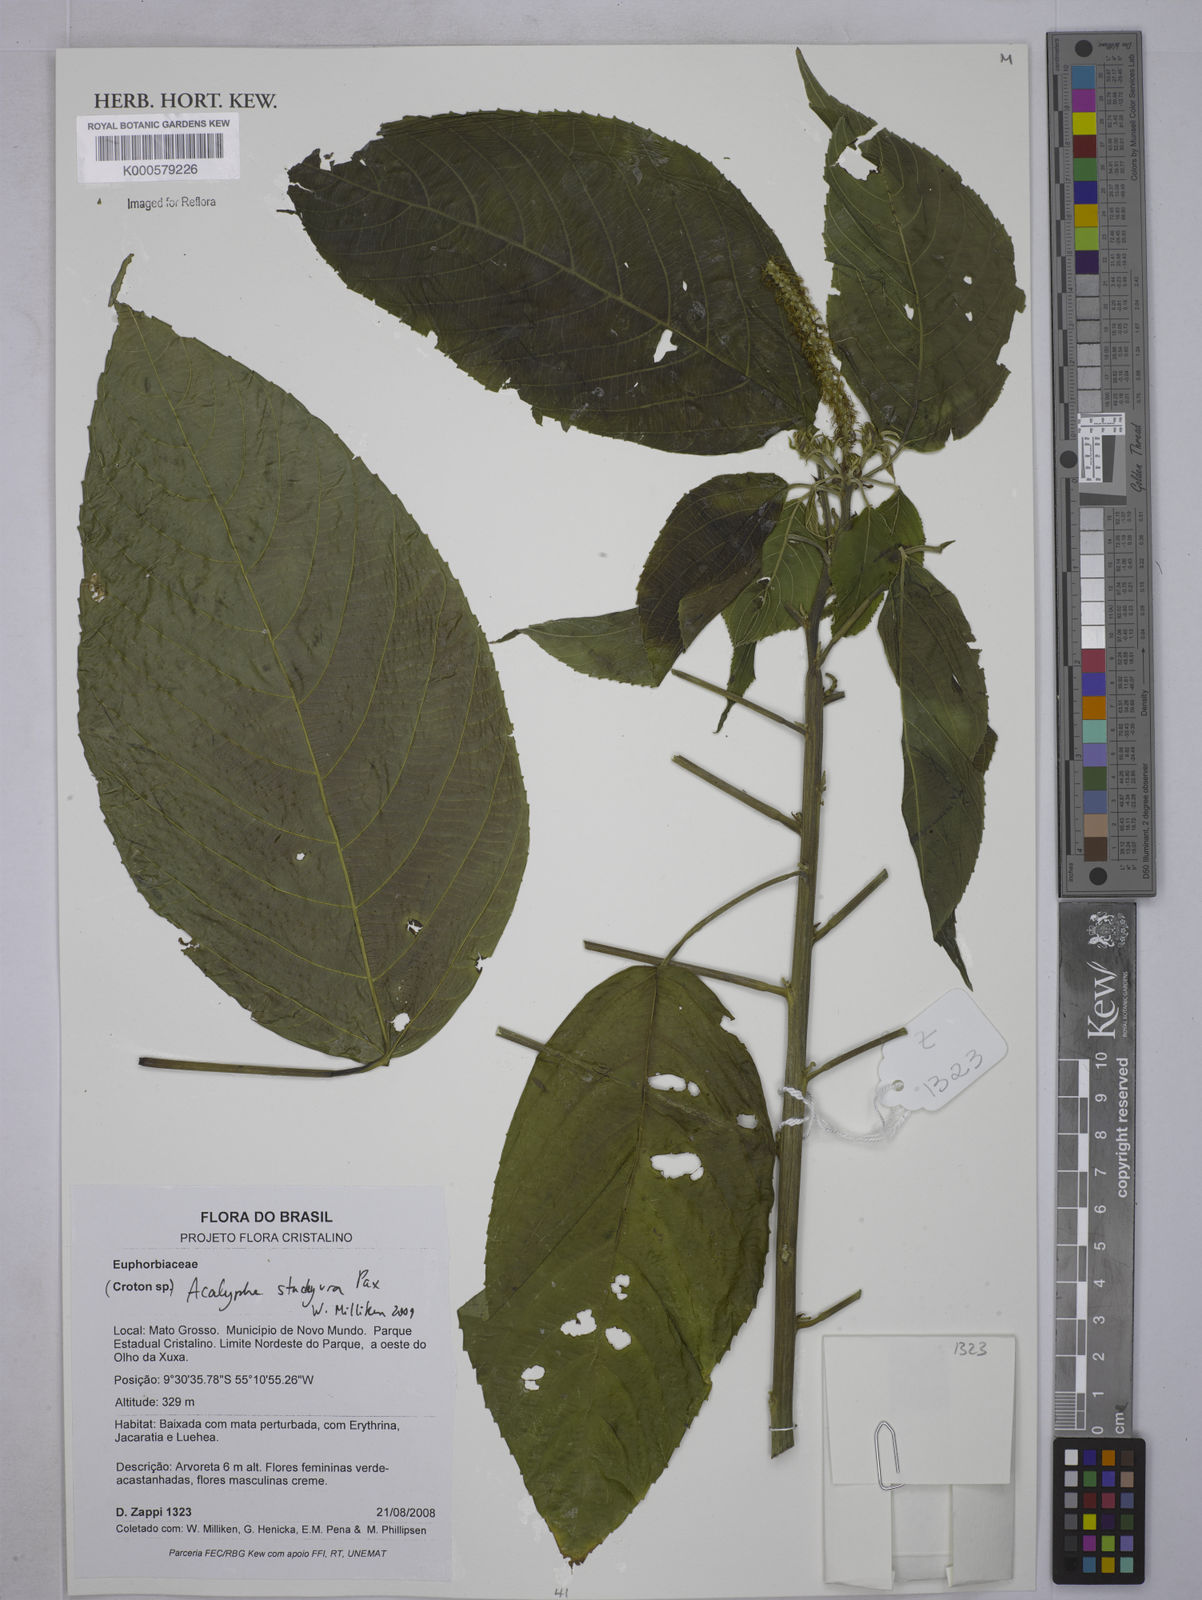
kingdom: Plantae
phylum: Tracheophyta
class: Magnoliopsida
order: Malpighiales
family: Euphorbiaceae
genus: Acalypha
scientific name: Acalypha stachyura
